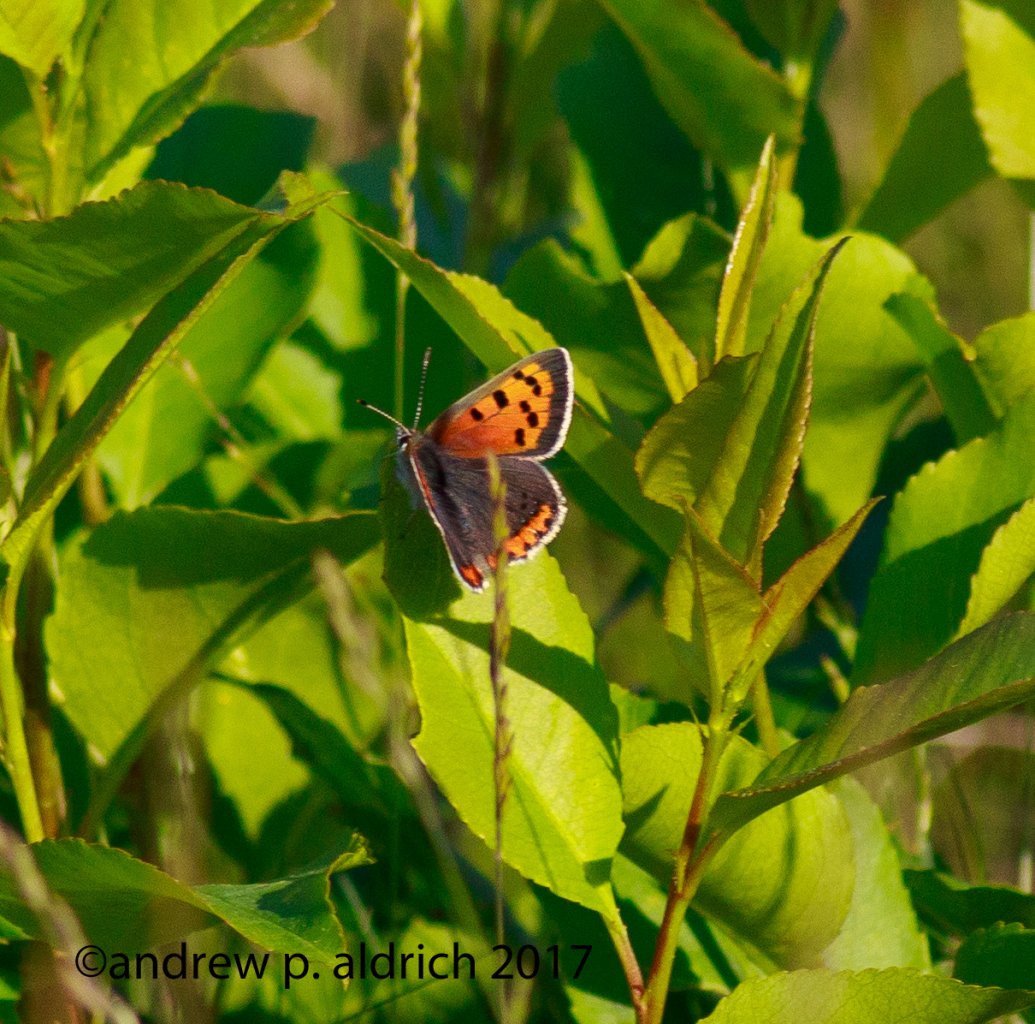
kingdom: Animalia
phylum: Arthropoda
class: Insecta
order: Lepidoptera
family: Lycaenidae
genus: Lycaena
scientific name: Lycaena phlaeas
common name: American Copper
